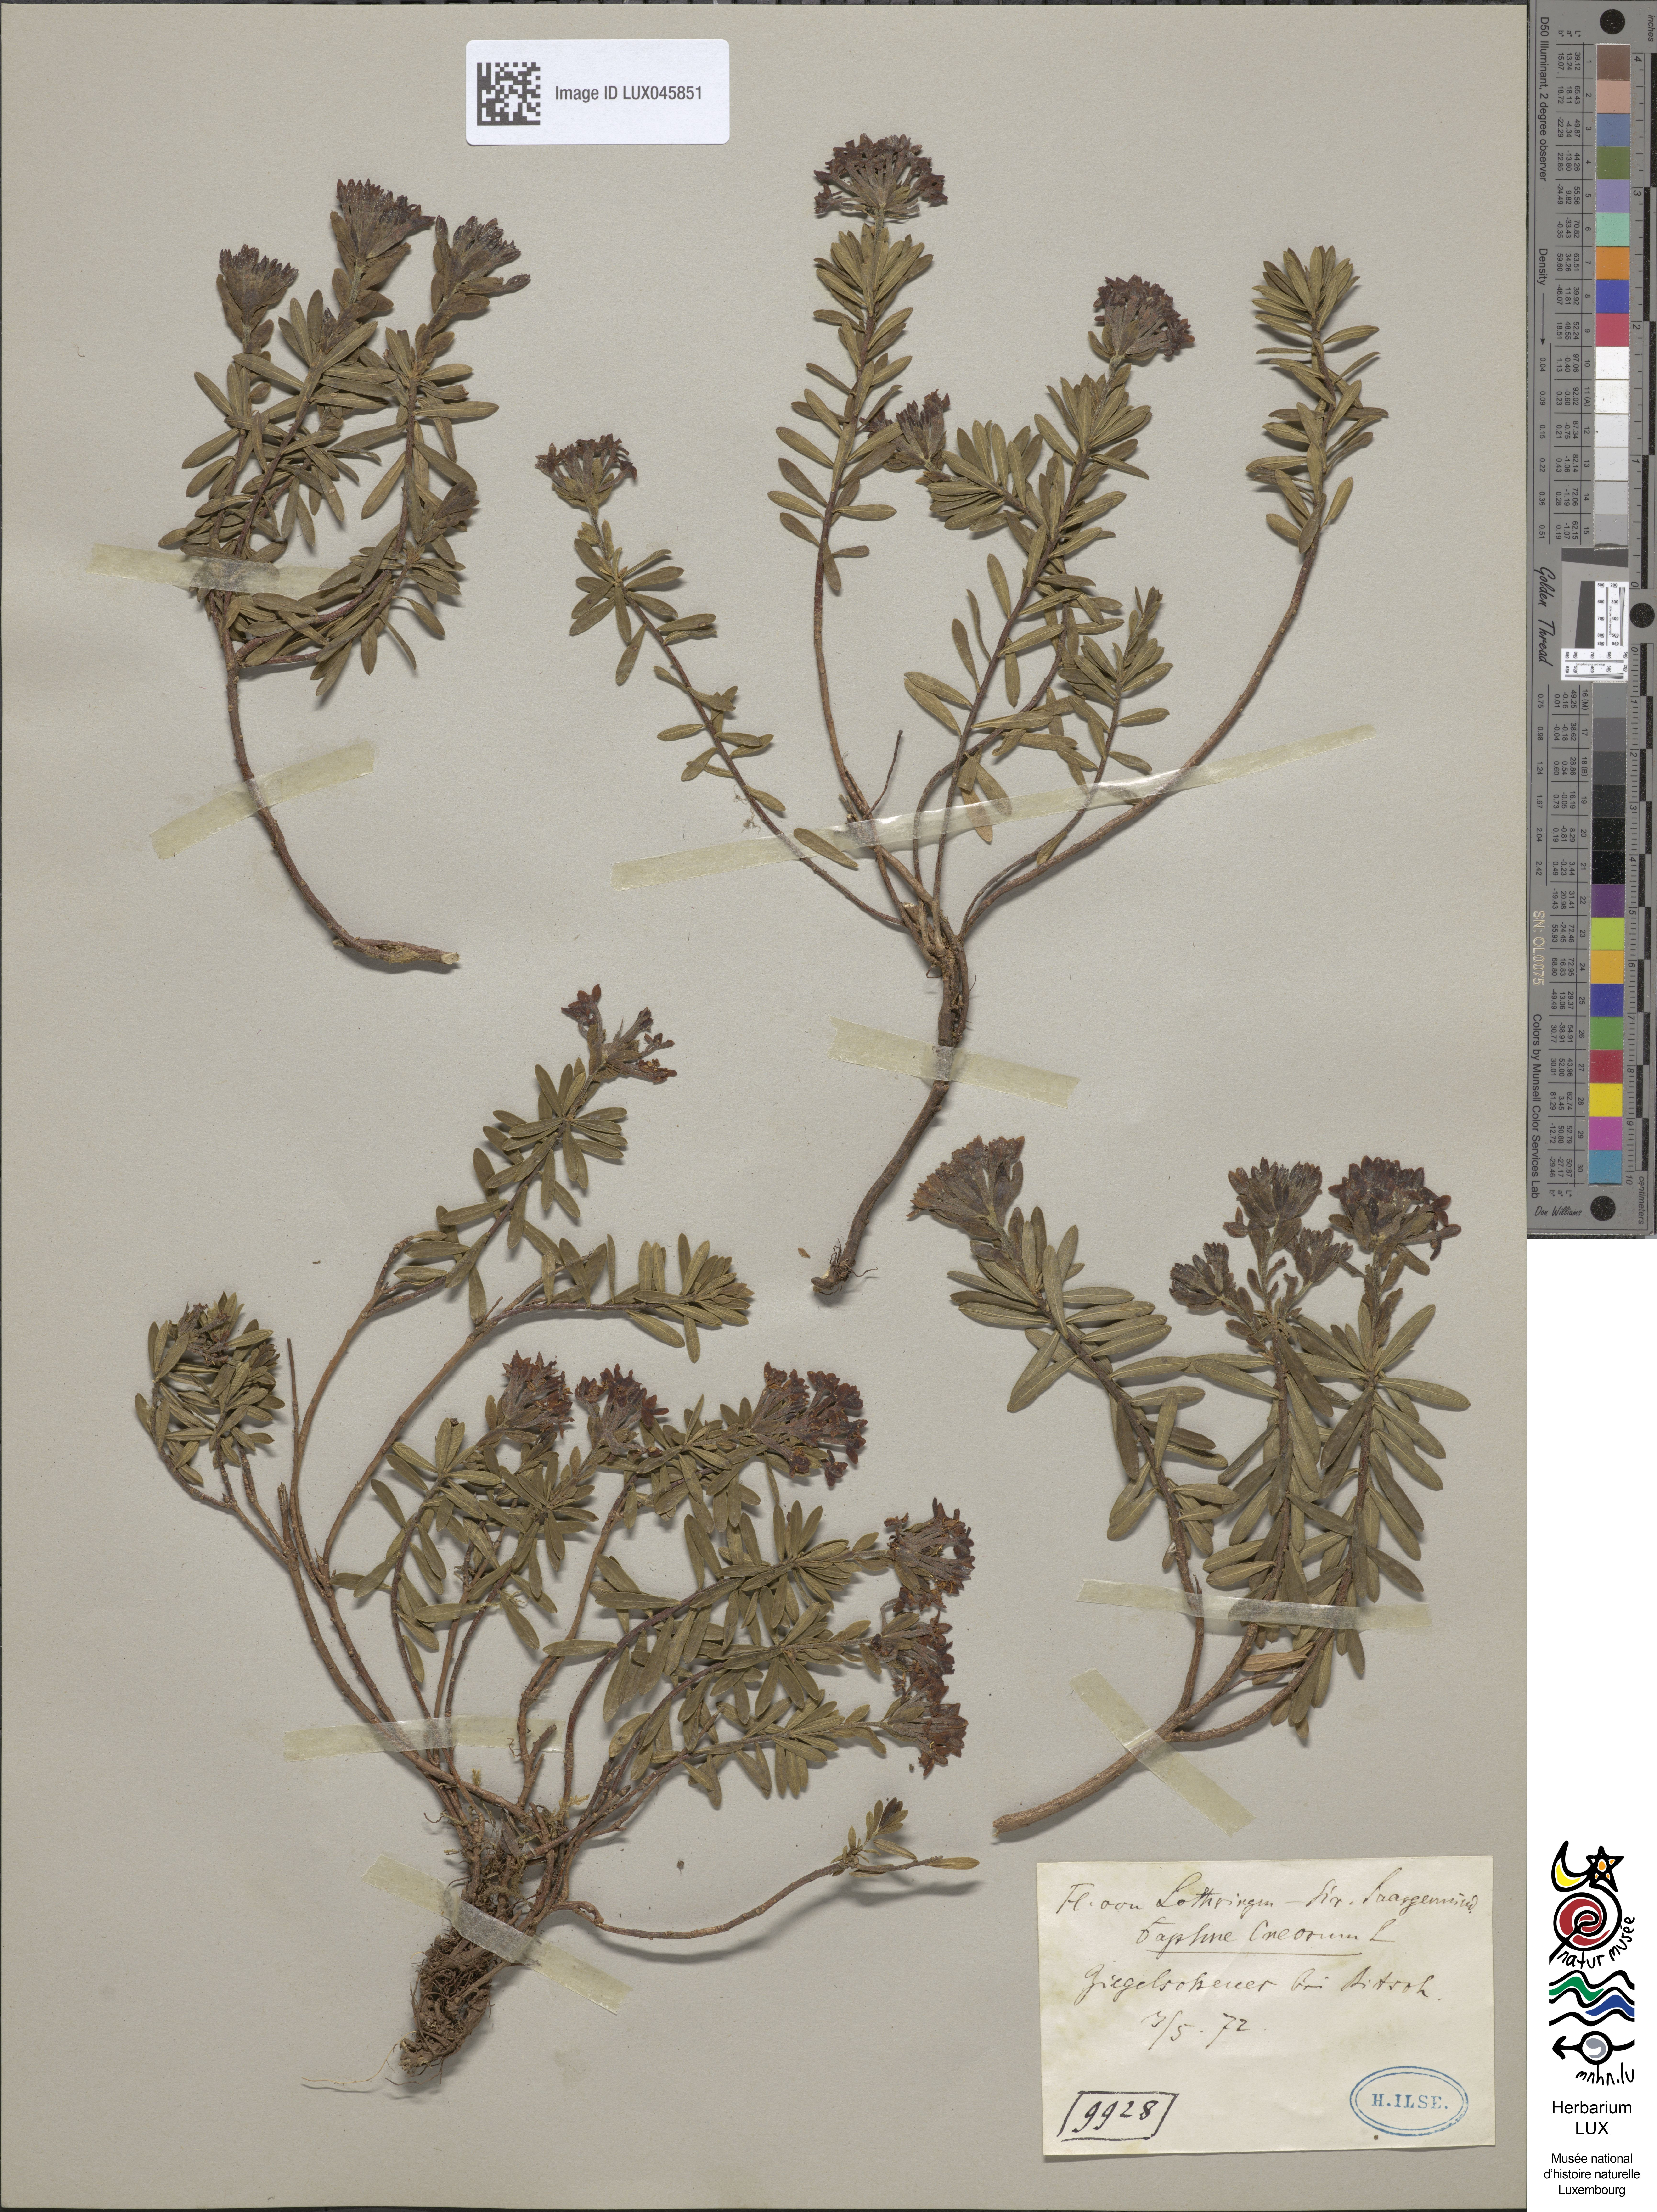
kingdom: Plantae
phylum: Tracheophyta
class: Magnoliopsida
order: Malvales
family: Thymelaeaceae
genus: Daphne
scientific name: Daphne cneorum
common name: Garland-flower
